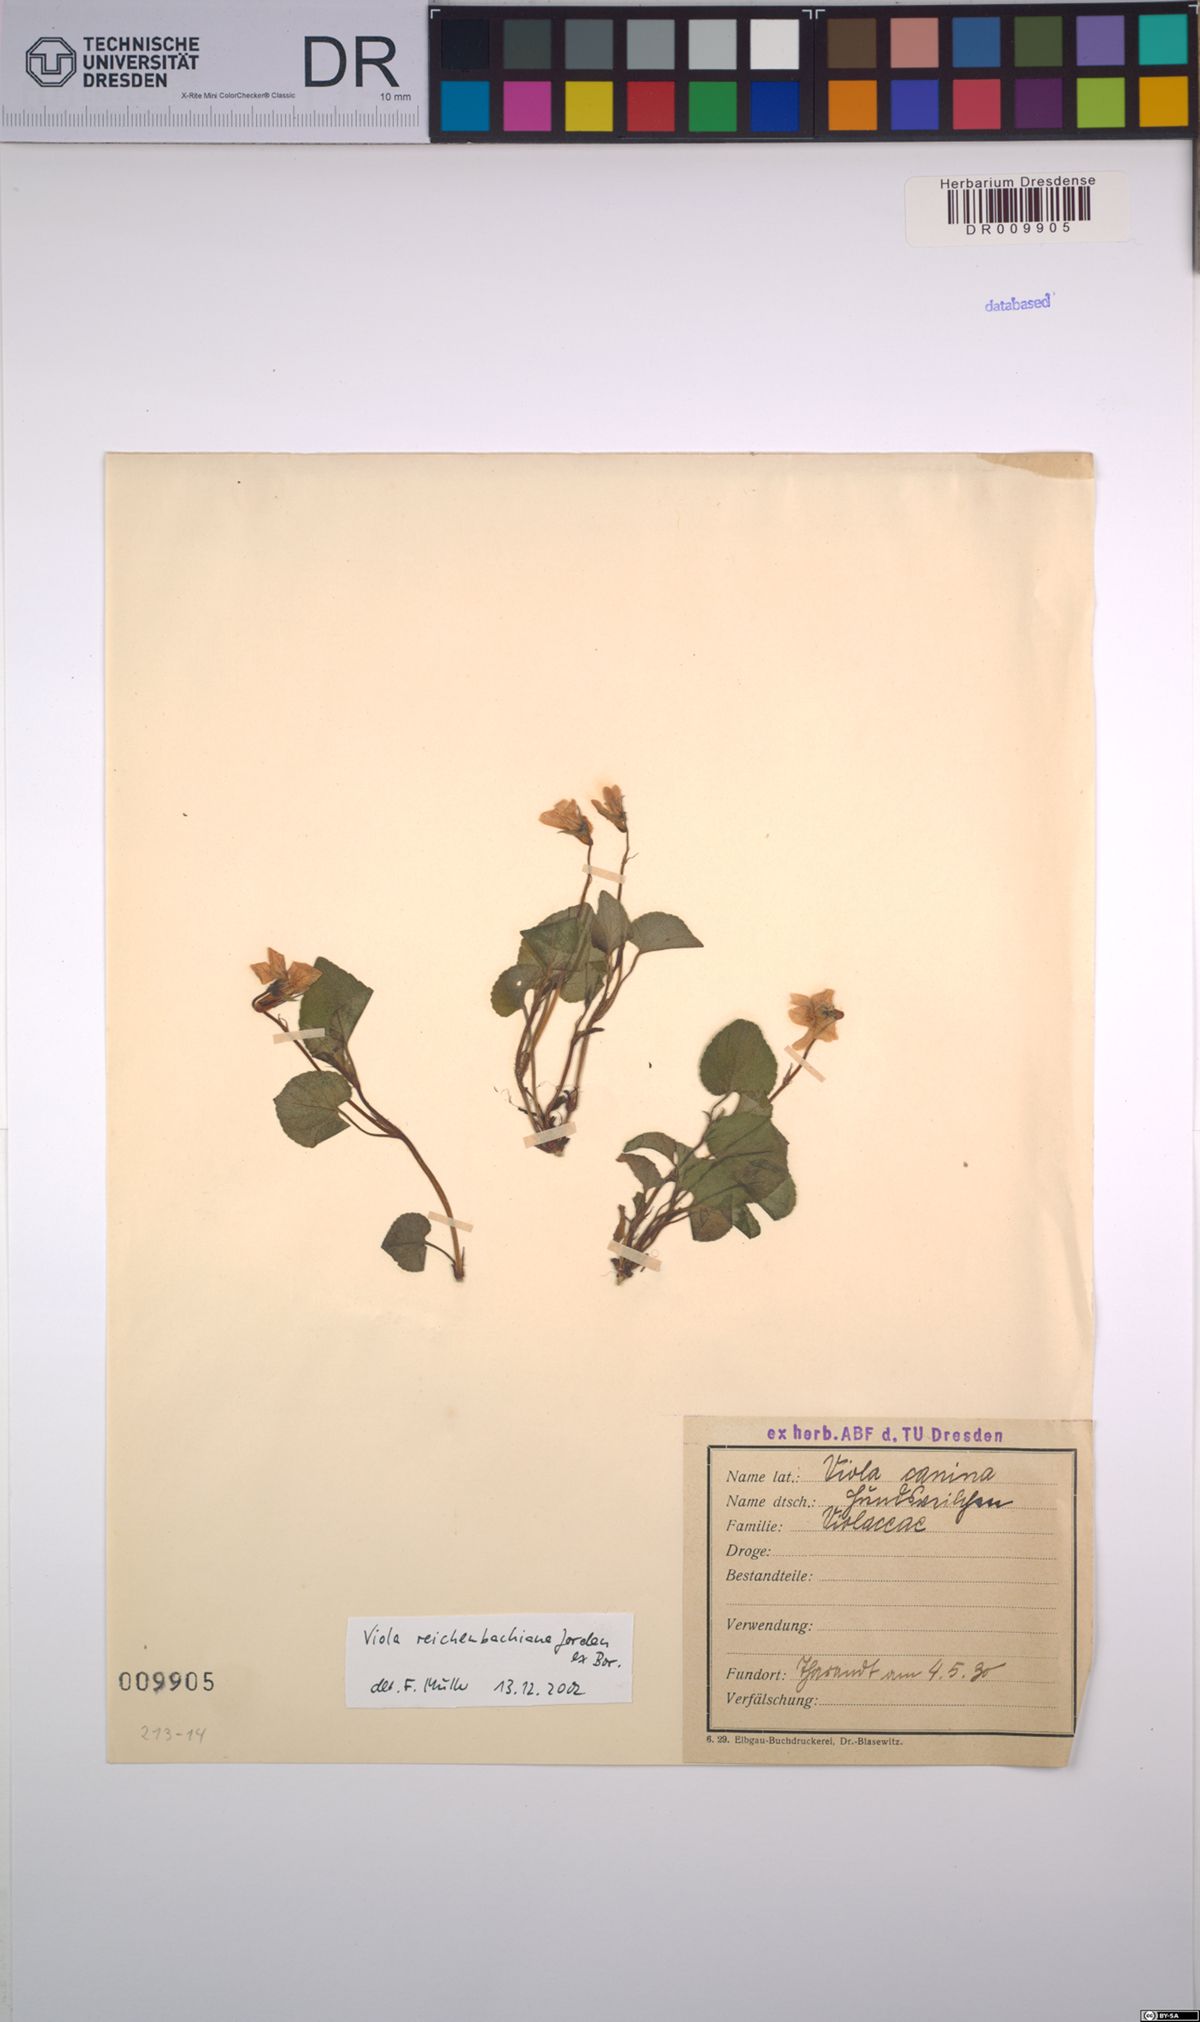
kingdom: Plantae
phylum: Tracheophyta
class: Magnoliopsida
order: Malpighiales
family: Violaceae
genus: Viola
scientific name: Viola reichenbachiana
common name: Early dog-violet
